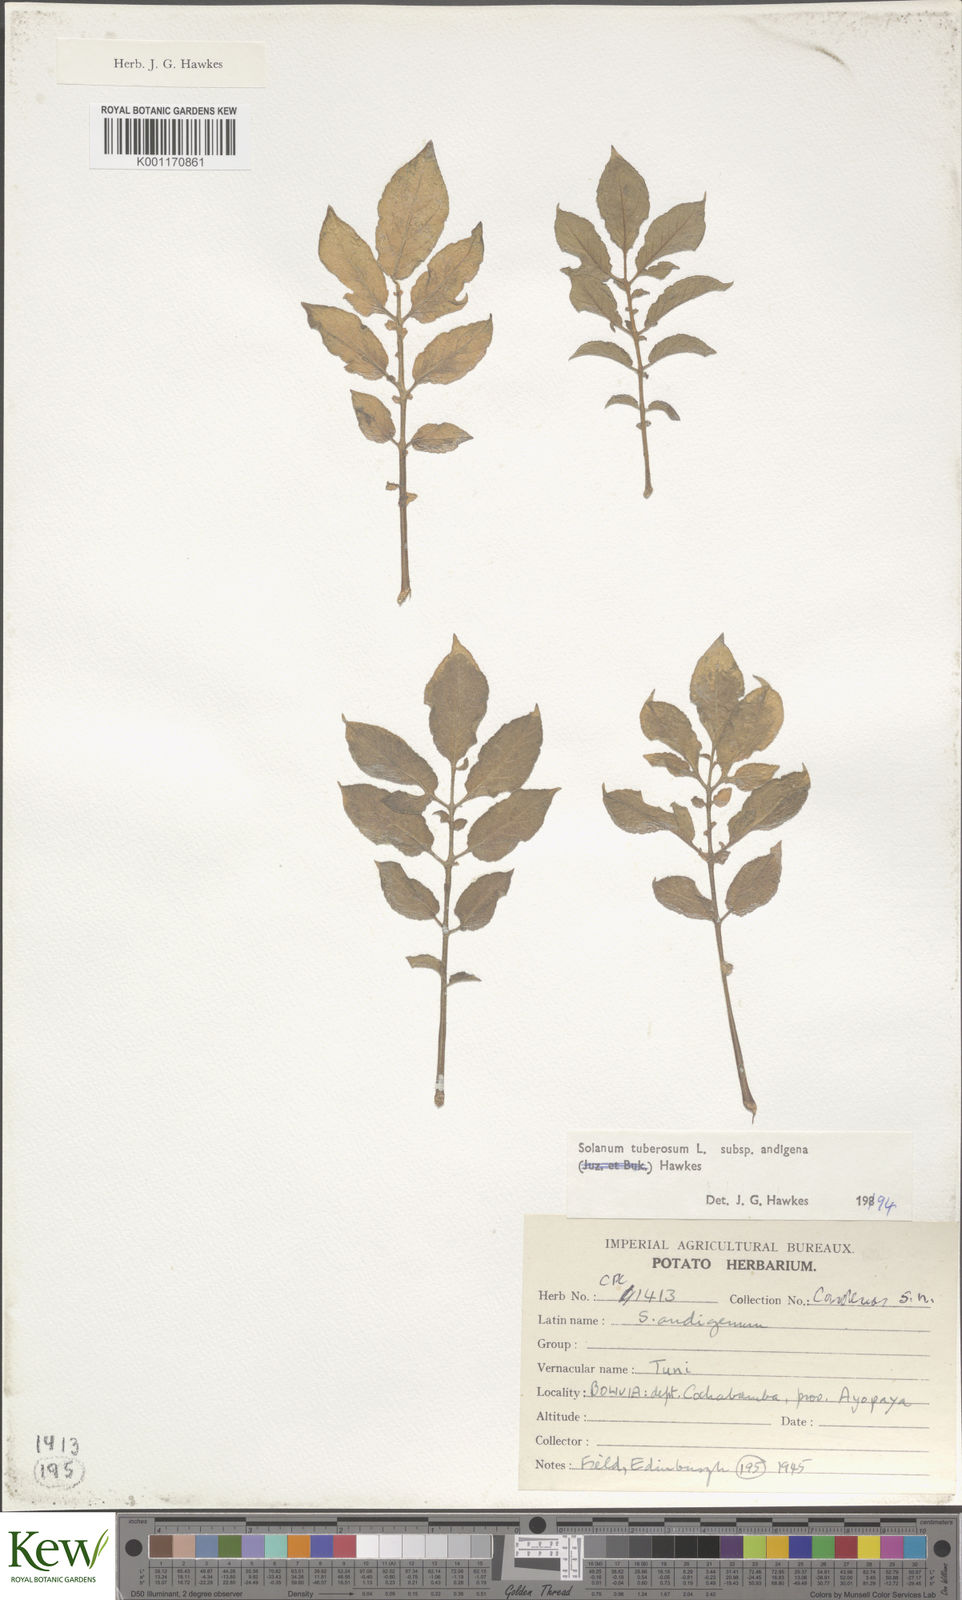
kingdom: Plantae
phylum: Tracheophyta
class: Magnoliopsida
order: Solanales
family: Solanaceae
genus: Solanum
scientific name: Solanum tuberosum
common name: Potato
